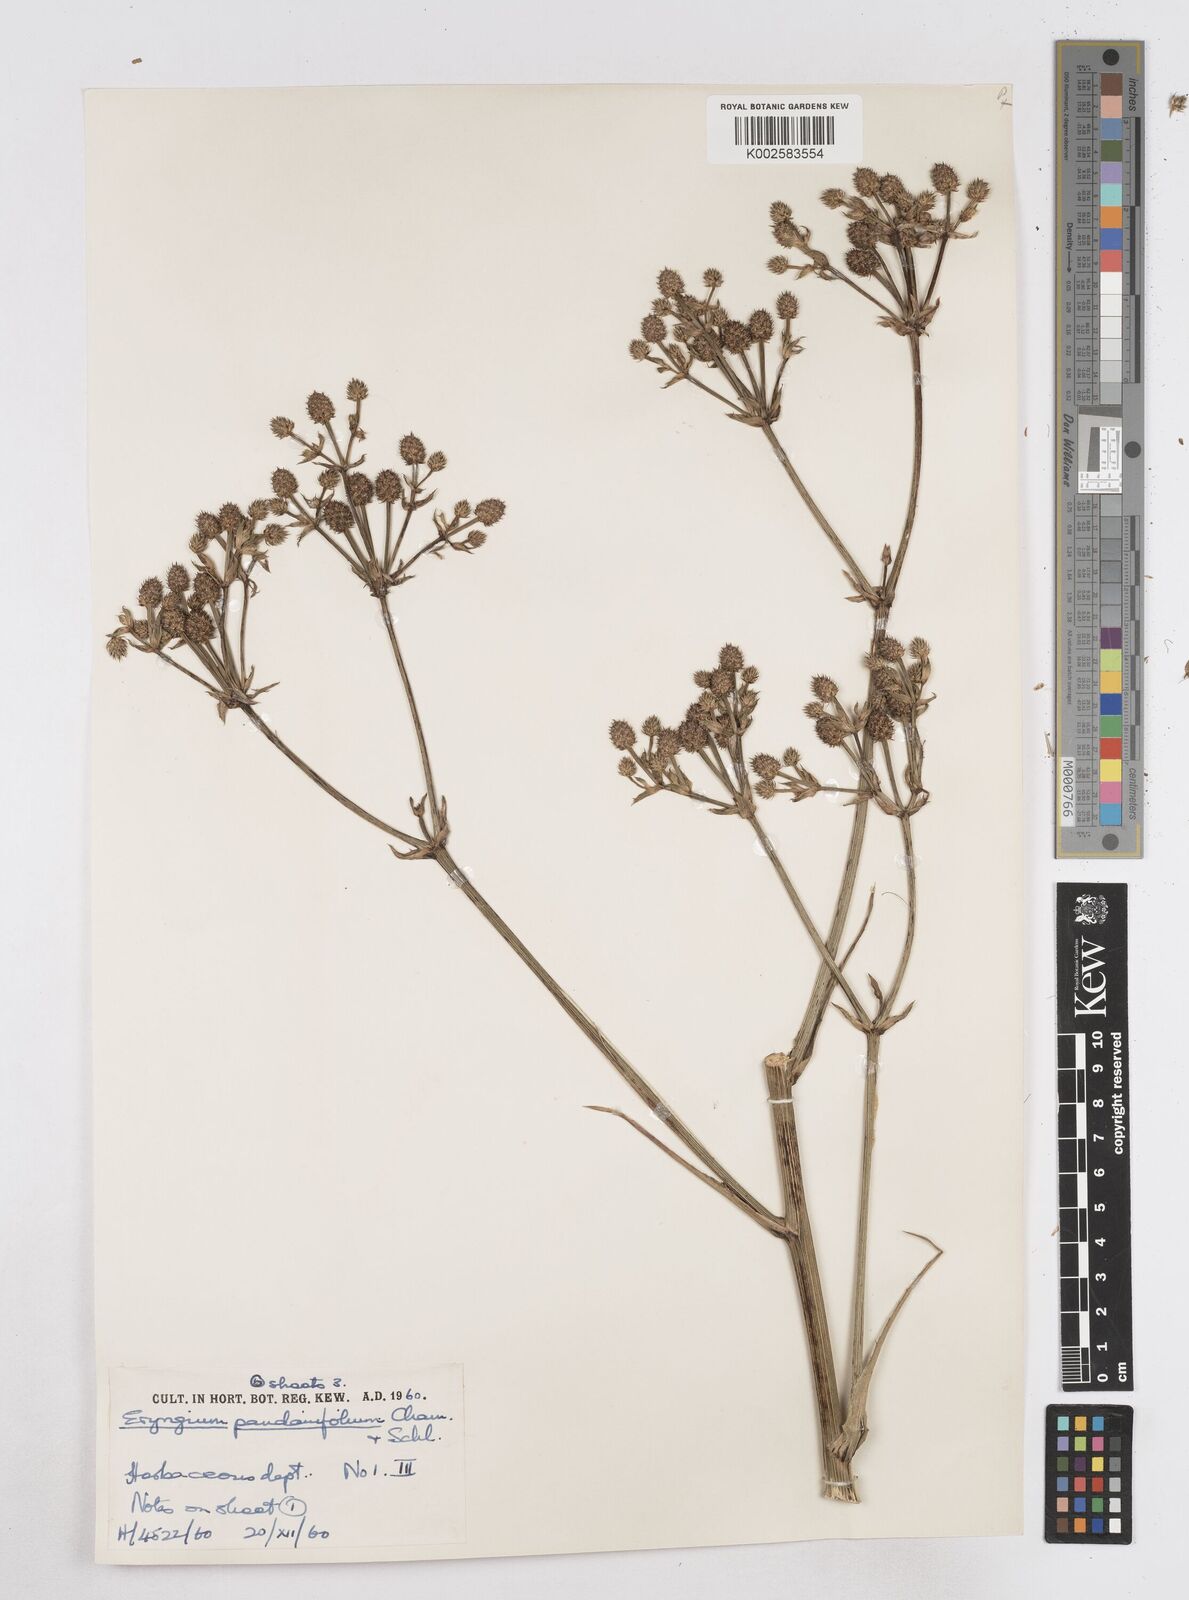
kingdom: Plantae
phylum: Tracheophyta
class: Magnoliopsida
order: Apiales
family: Apiaceae
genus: Eryngium
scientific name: Eryngium pandanifolium
